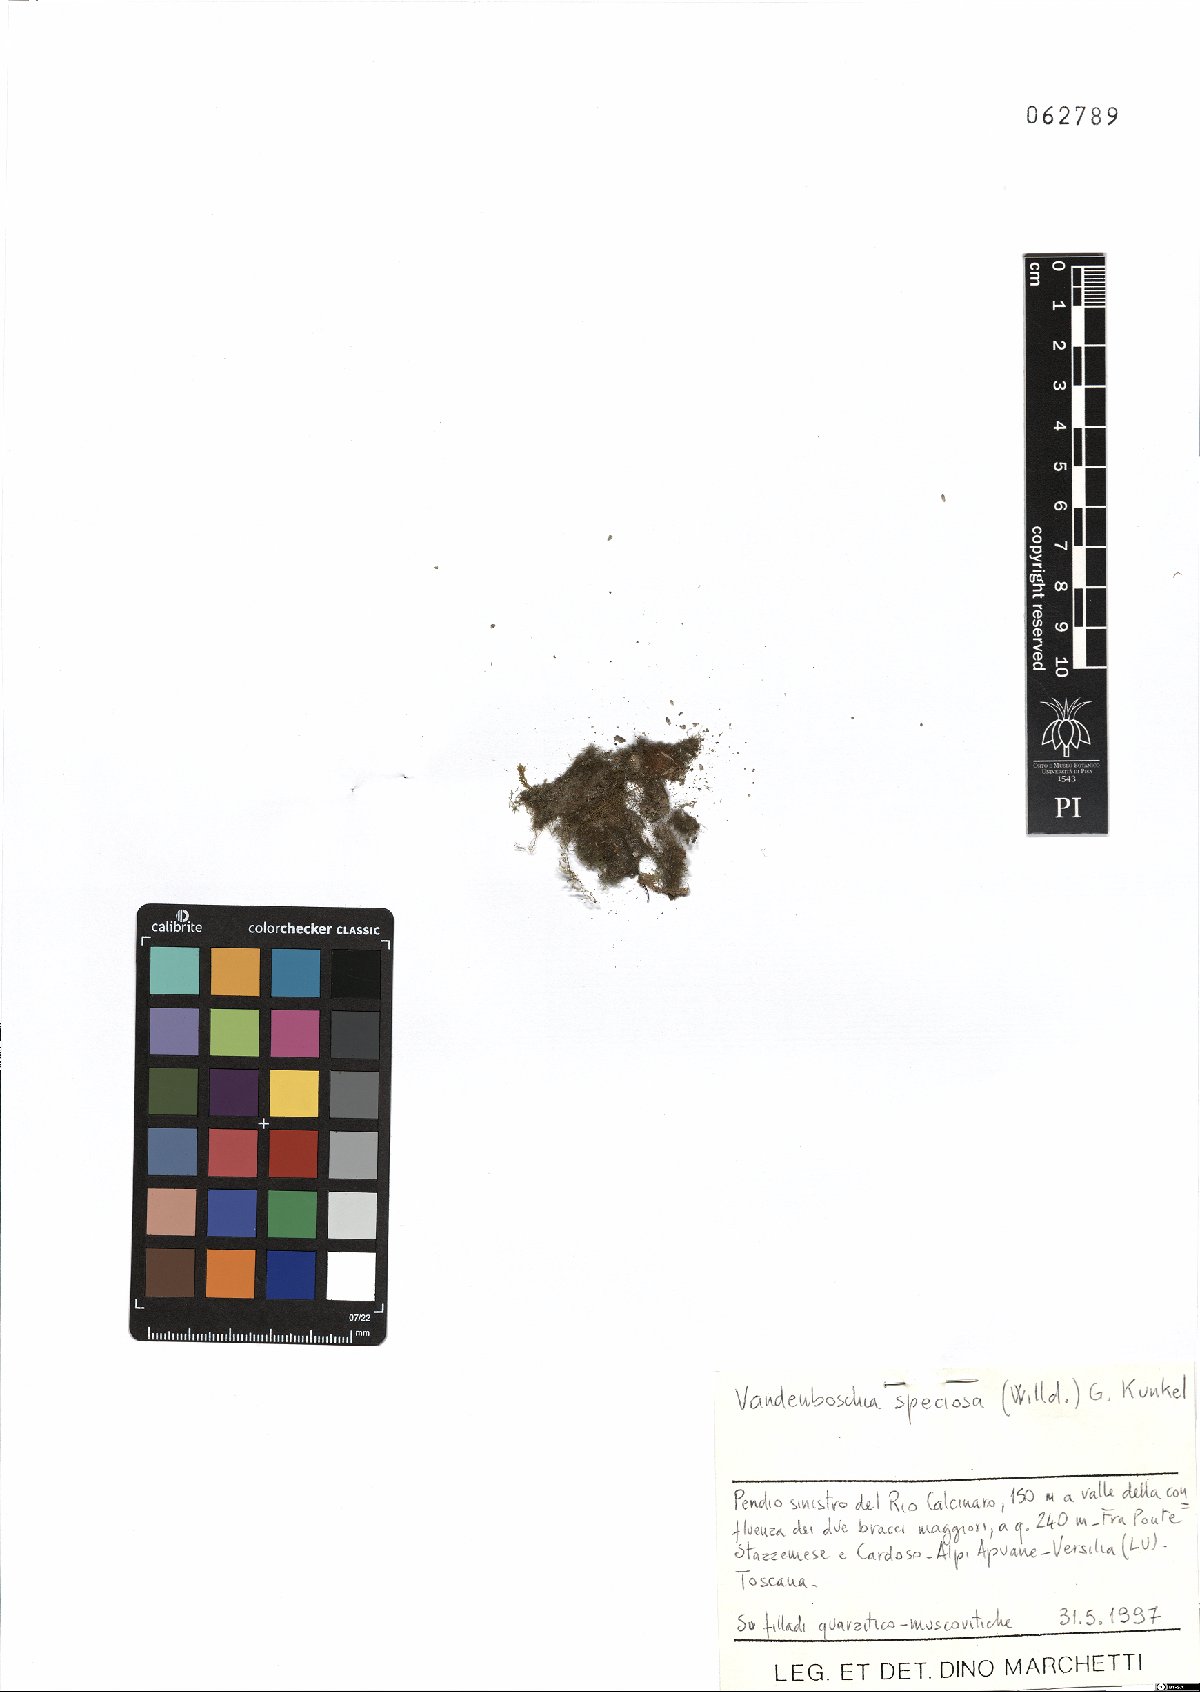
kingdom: Plantae
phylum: Tracheophyta
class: Polypodiopsida
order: Hymenophyllales
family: Hymenophyllaceae
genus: Vandenboschia
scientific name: Vandenboschia speciosa
